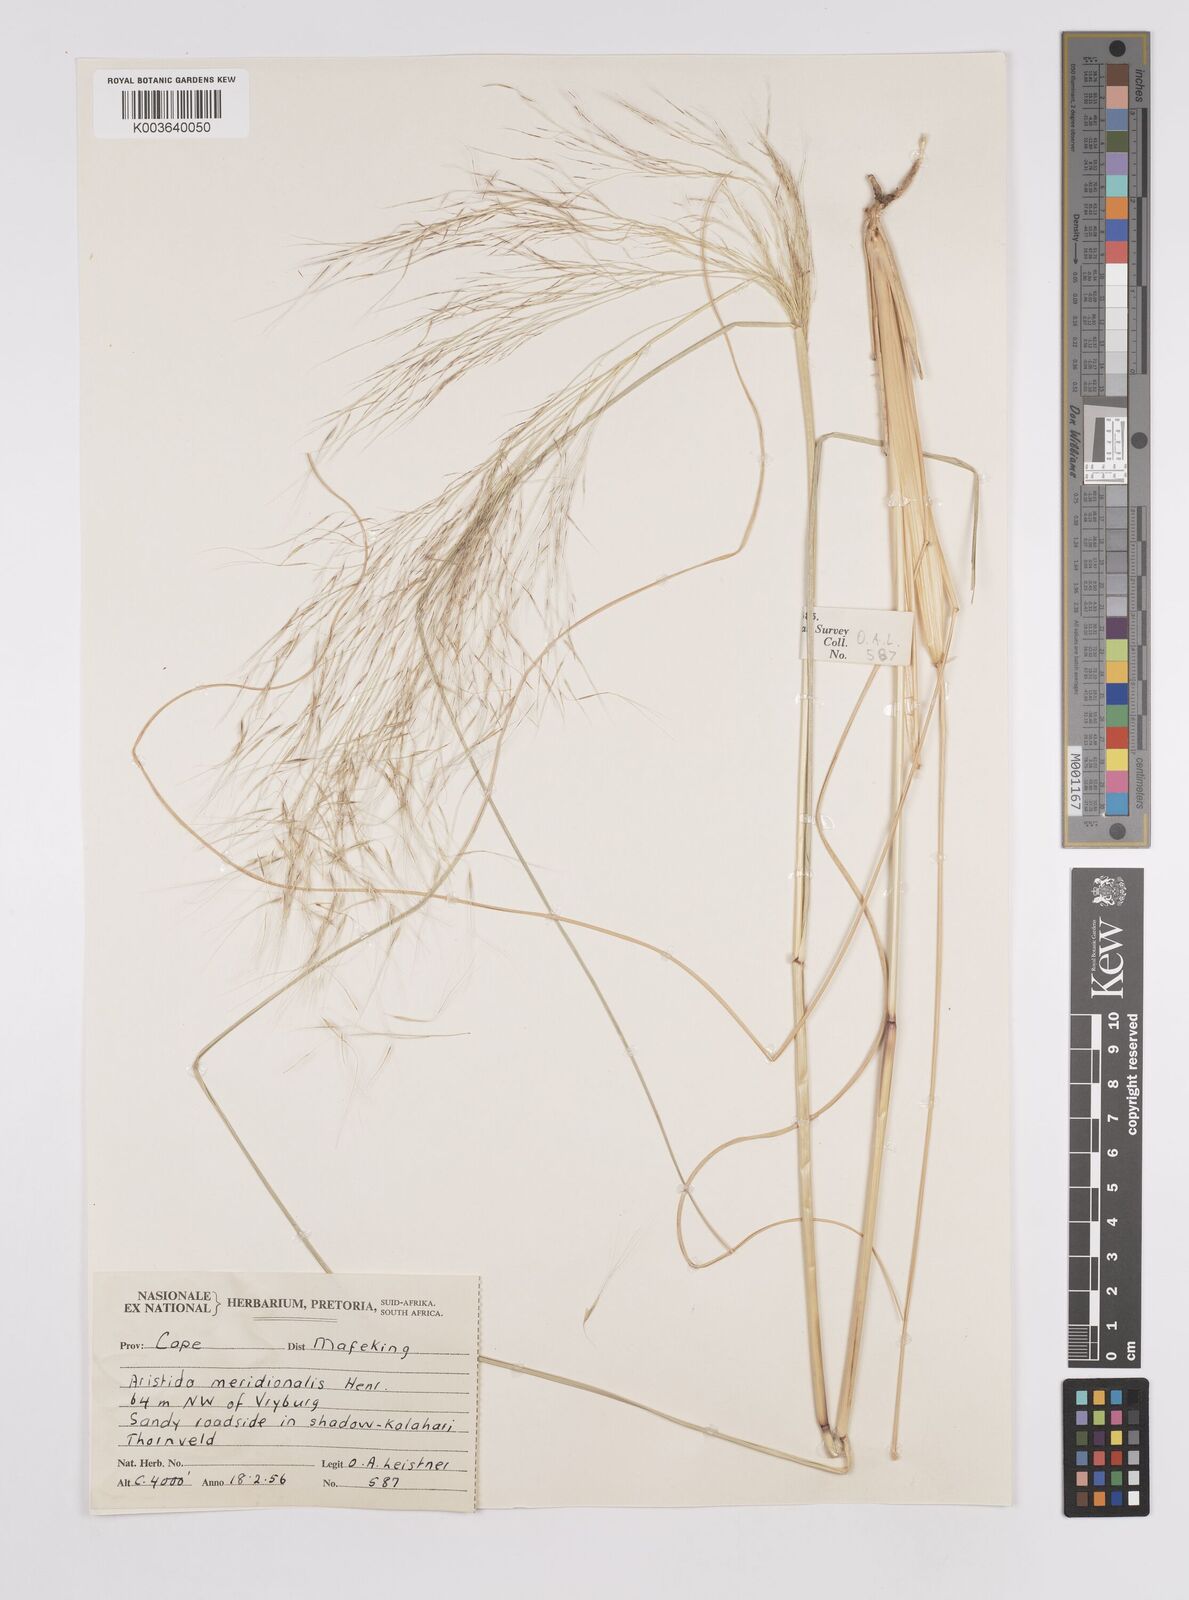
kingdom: Plantae
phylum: Tracheophyta
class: Liliopsida
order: Poales
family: Poaceae
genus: Aristida
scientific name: Aristida meridionalis
